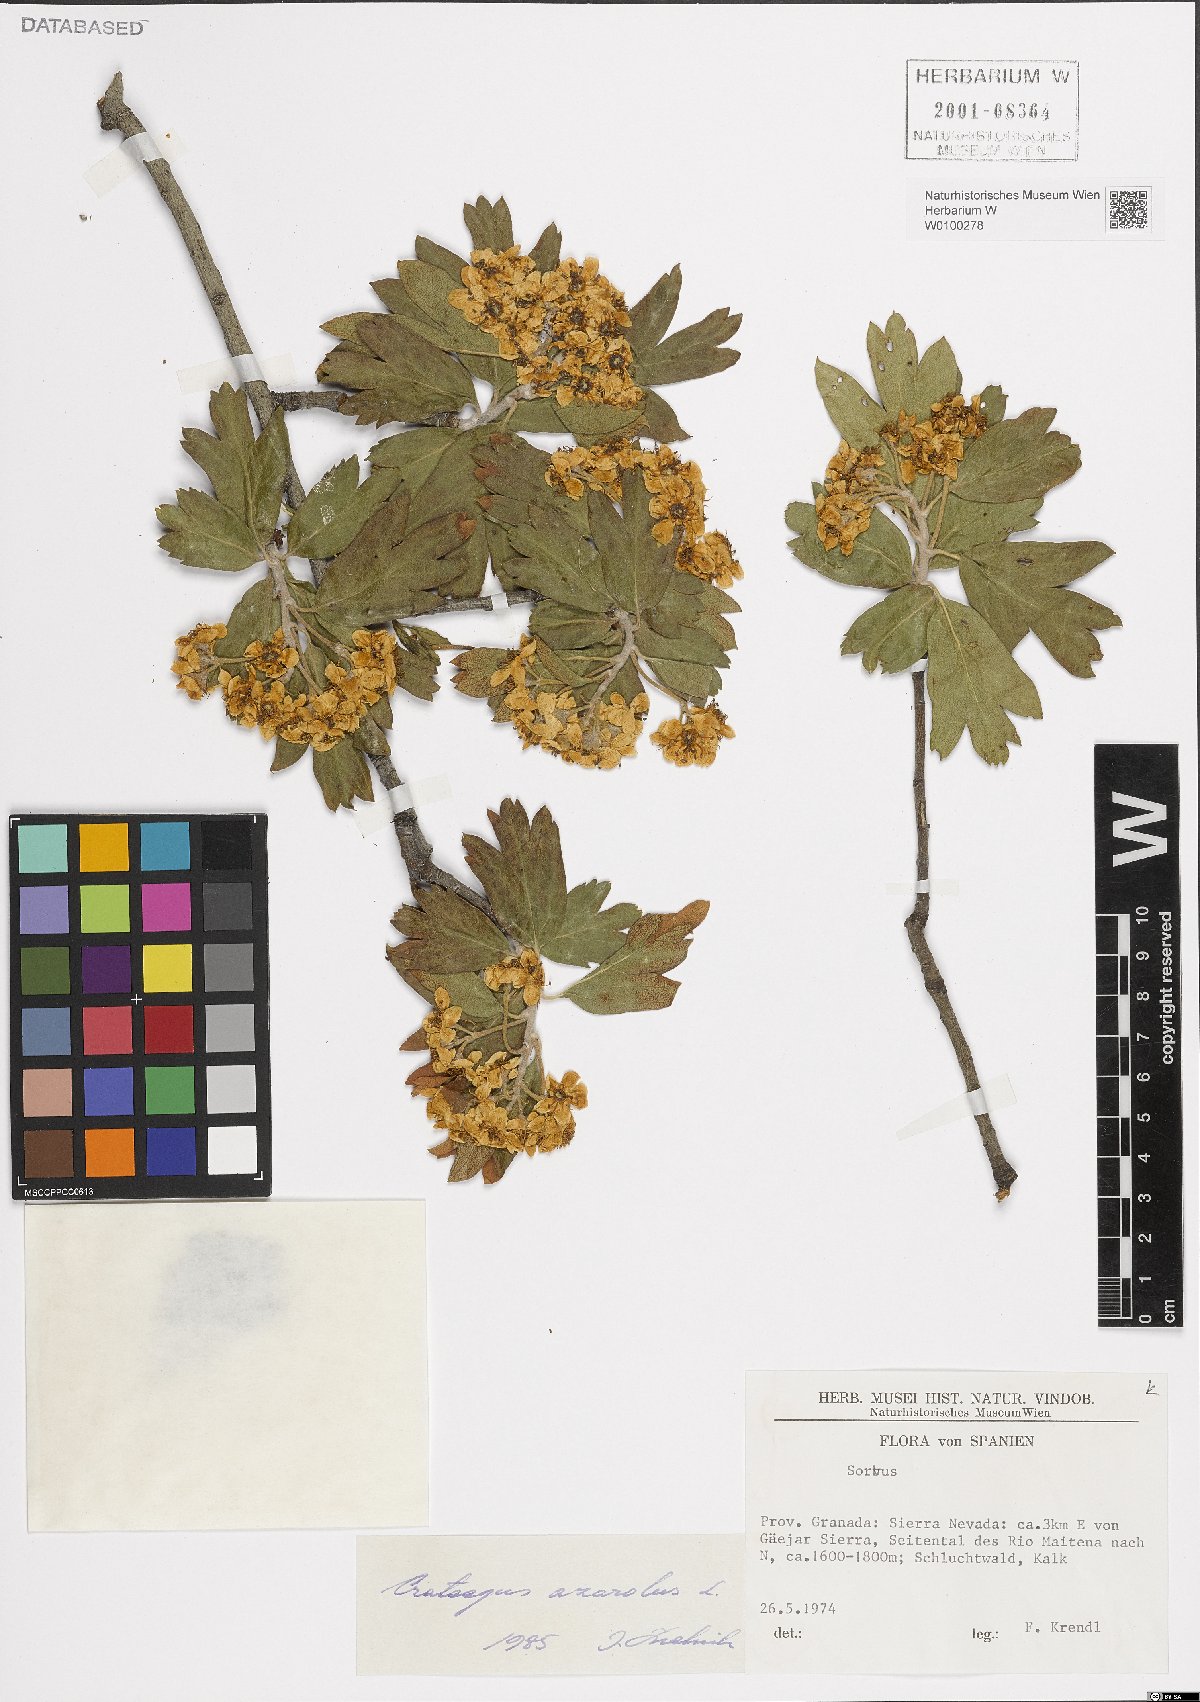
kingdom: Plantae
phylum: Tracheophyta
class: Magnoliopsida
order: Rosales
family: Rosaceae
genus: Crataegus
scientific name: Crataegus azarolus
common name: Azarole
